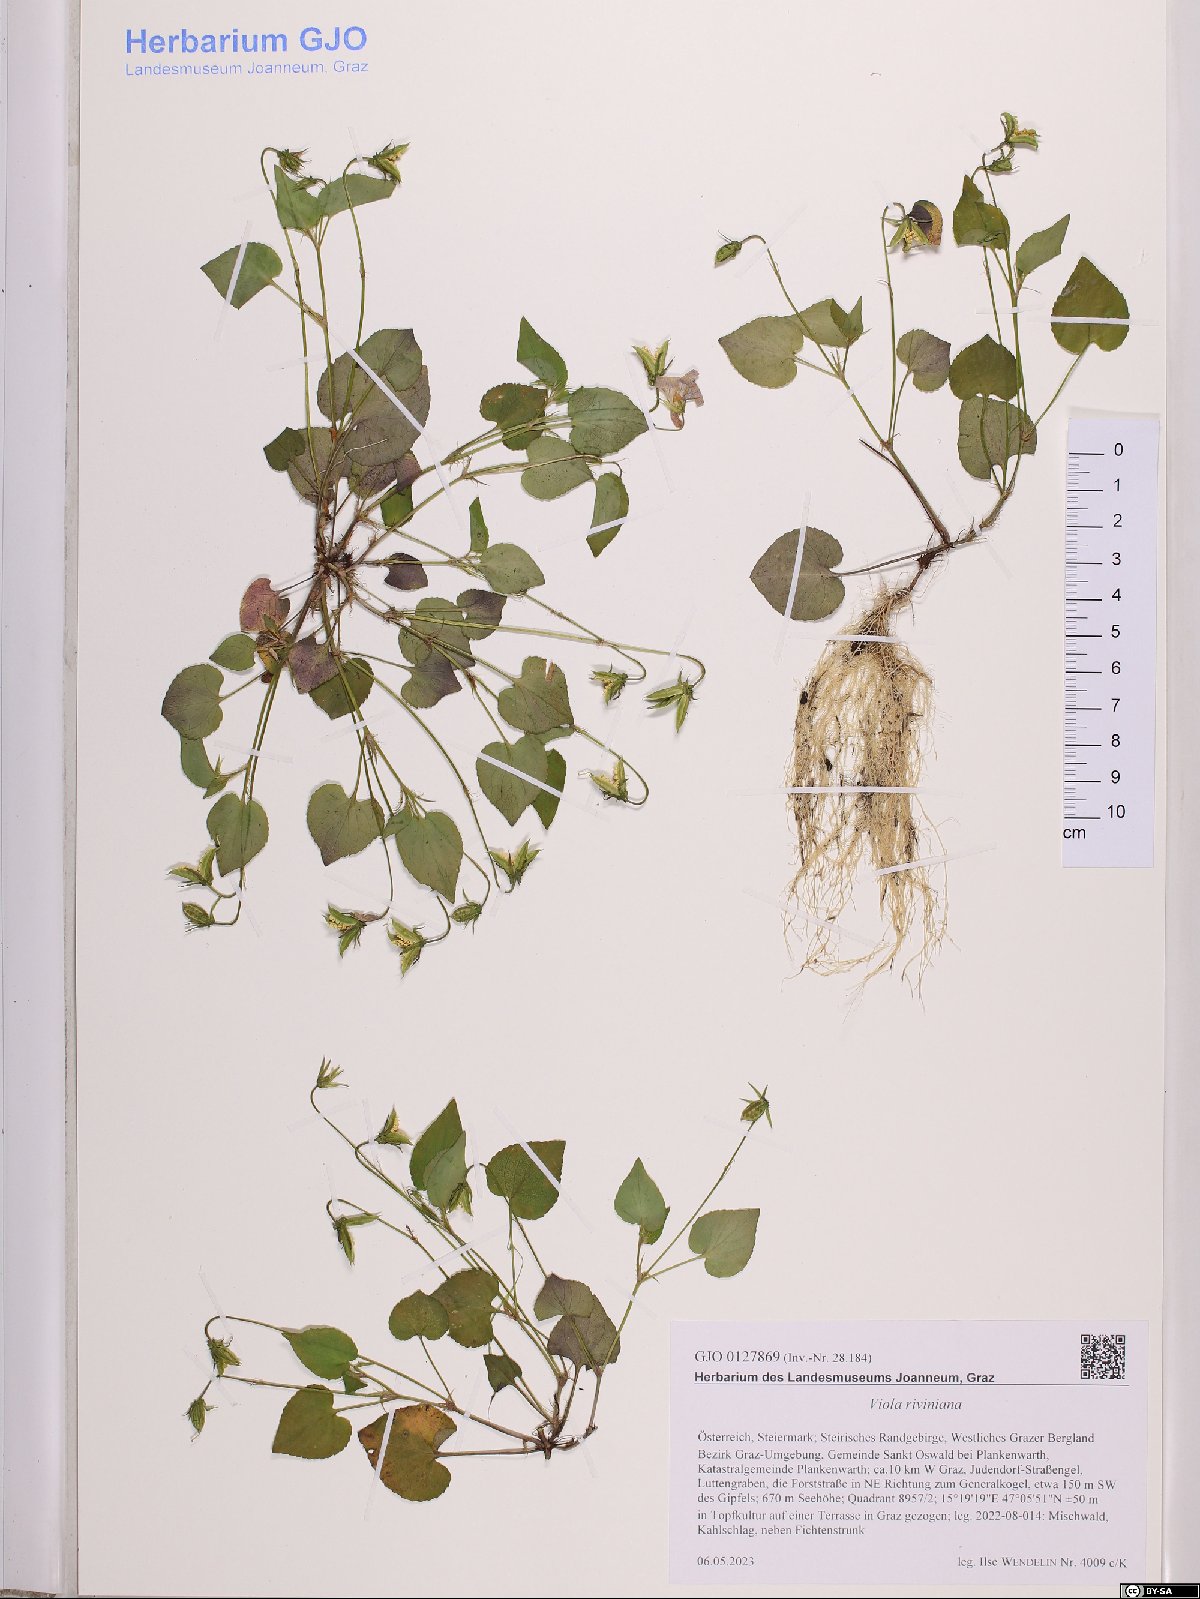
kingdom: Plantae
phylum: Tracheophyta
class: Magnoliopsida
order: Malpighiales
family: Violaceae
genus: Viola
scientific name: Viola riviniana
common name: Common dog-violet
